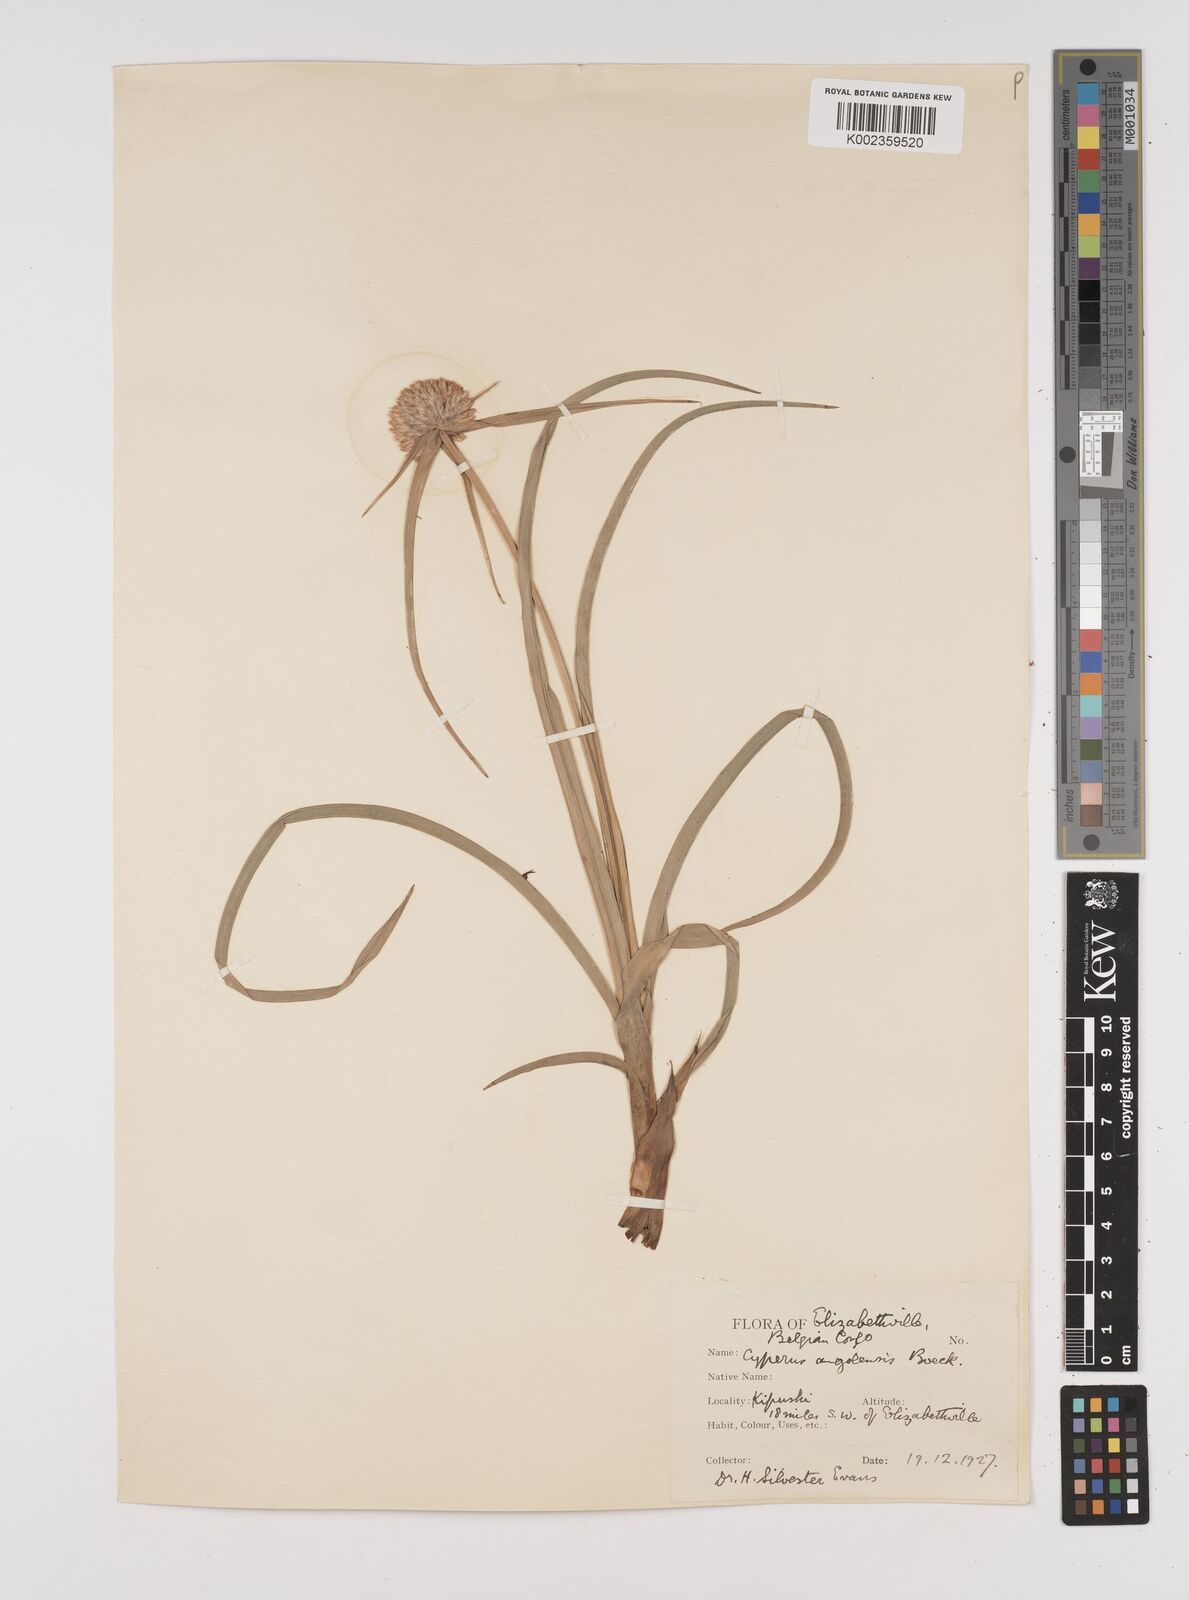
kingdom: Plantae
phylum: Tracheophyta
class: Liliopsida
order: Poales
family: Cyperaceae
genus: Cyperus
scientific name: Cyperus angolensis
